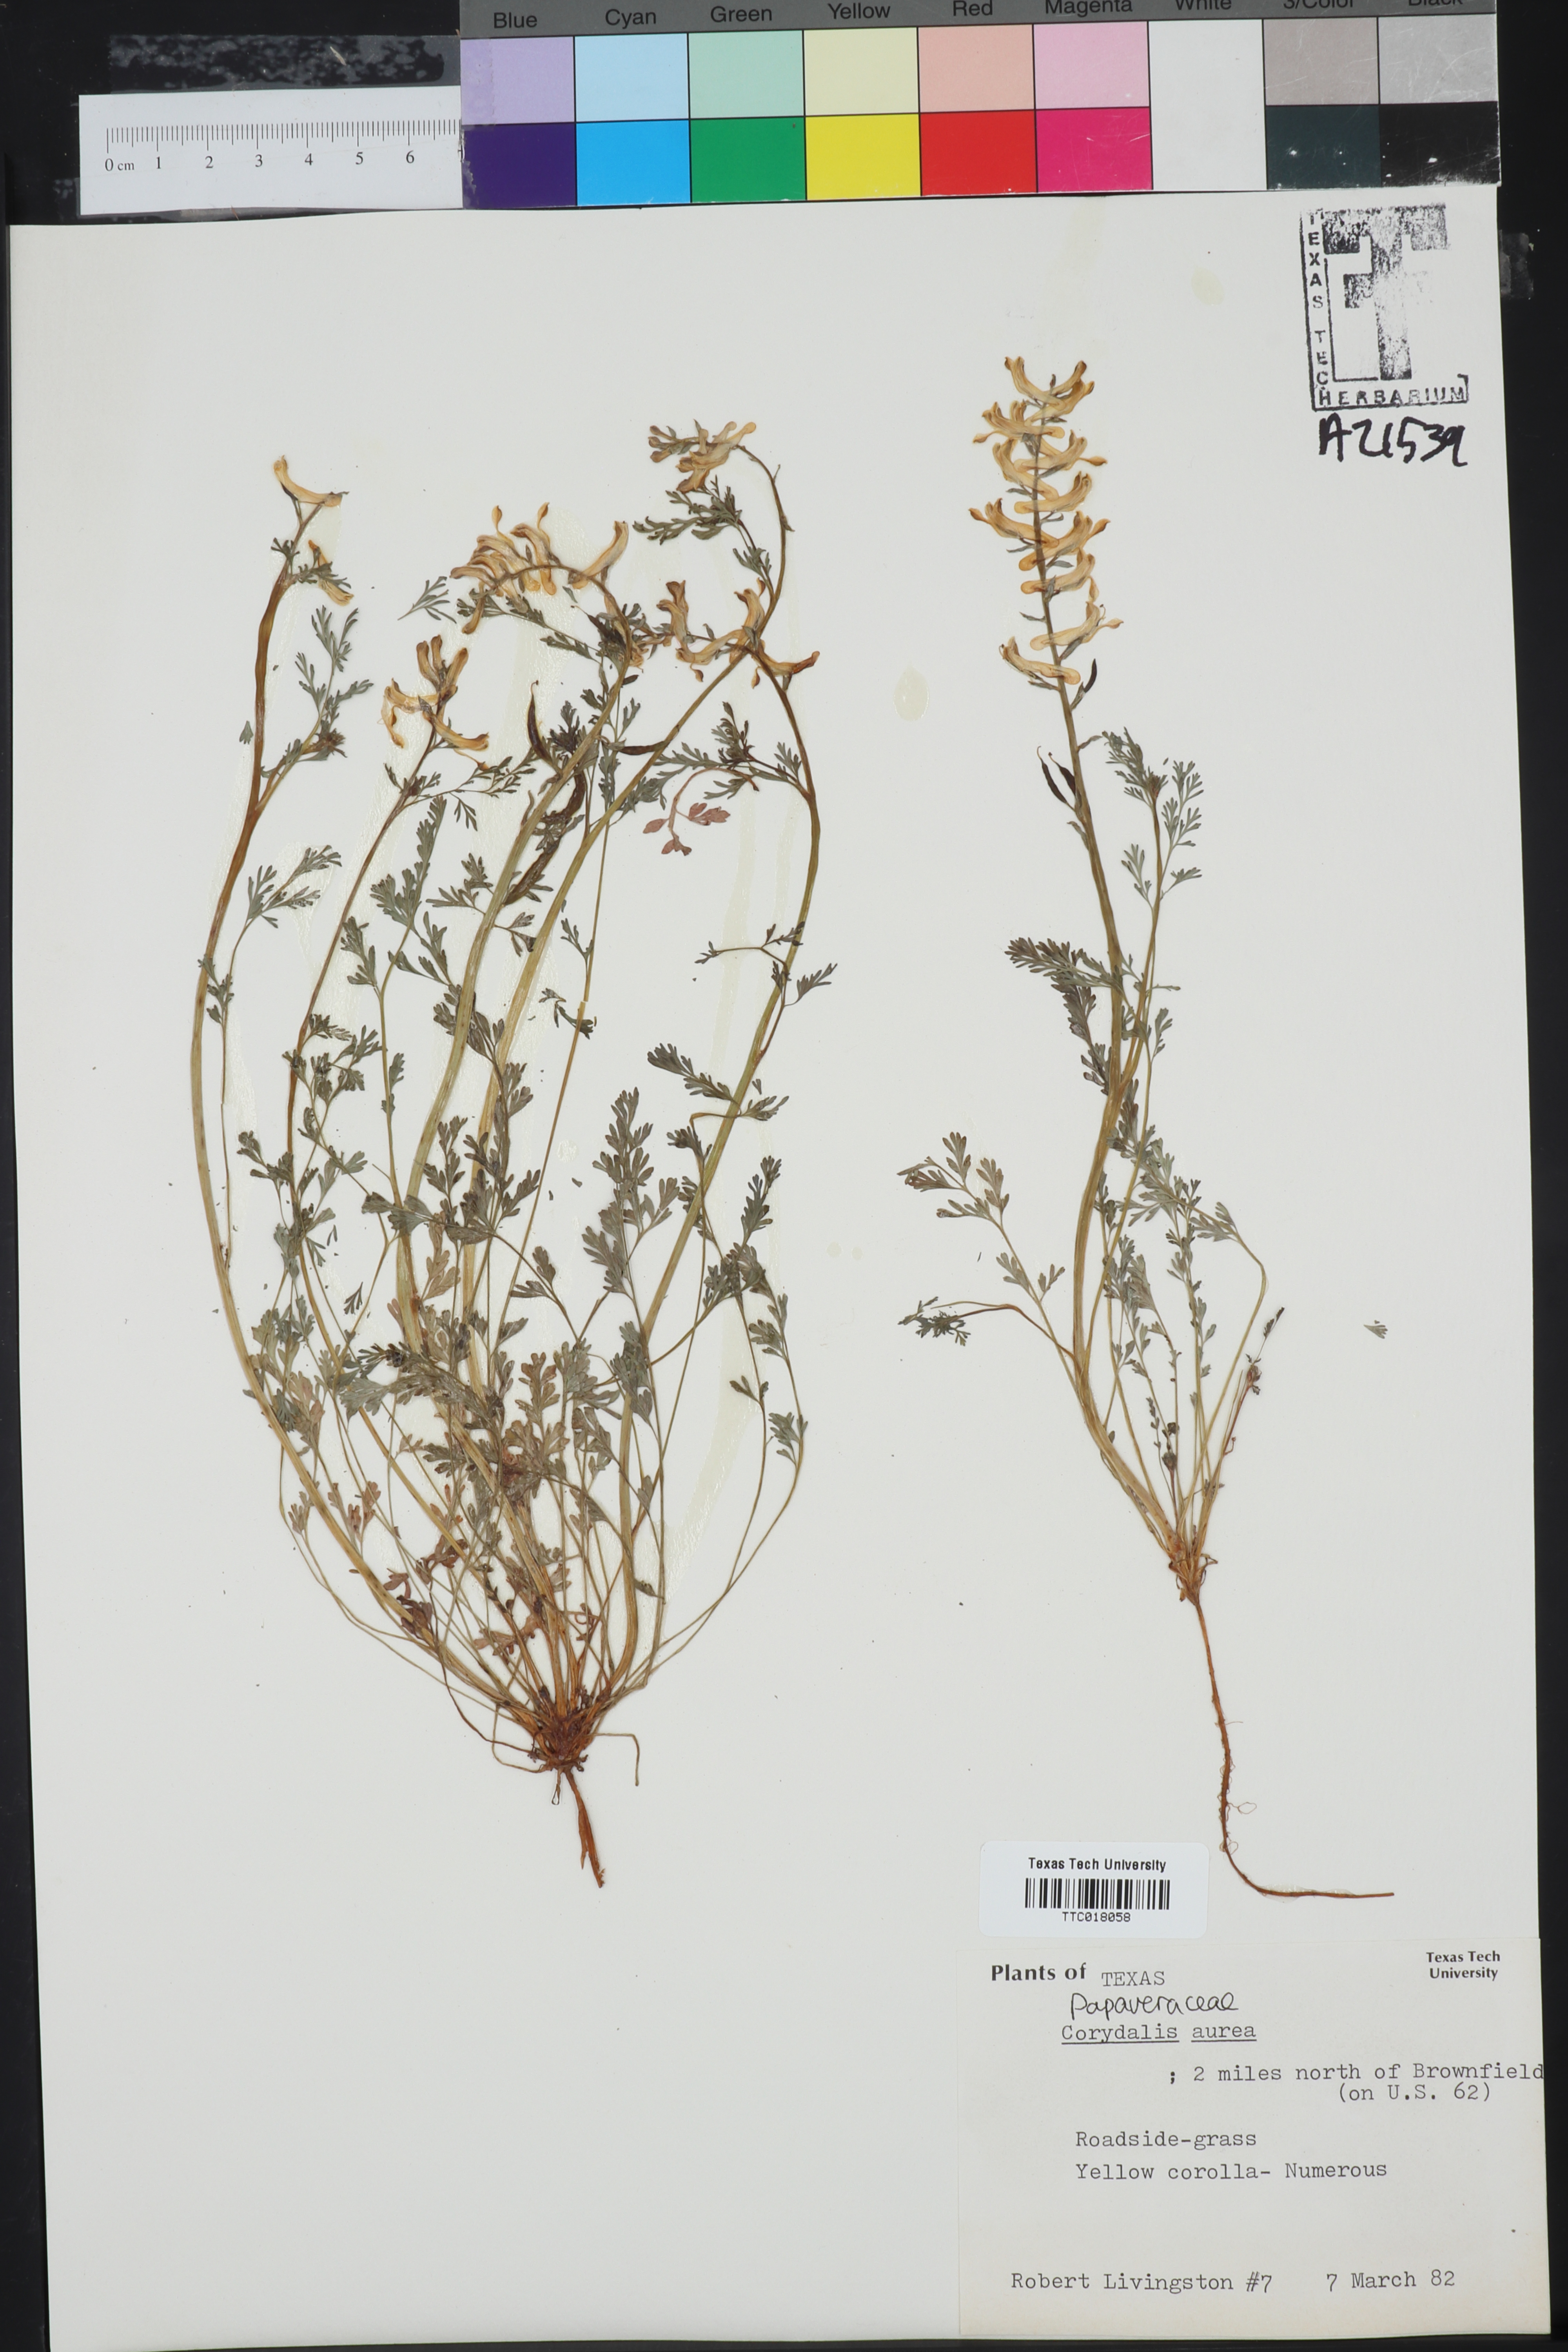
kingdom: Plantae
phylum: Tracheophyta
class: Magnoliopsida
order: Ranunculales
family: Papaveraceae
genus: Corydalis
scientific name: Corydalis aurea
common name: Golden corydalis
